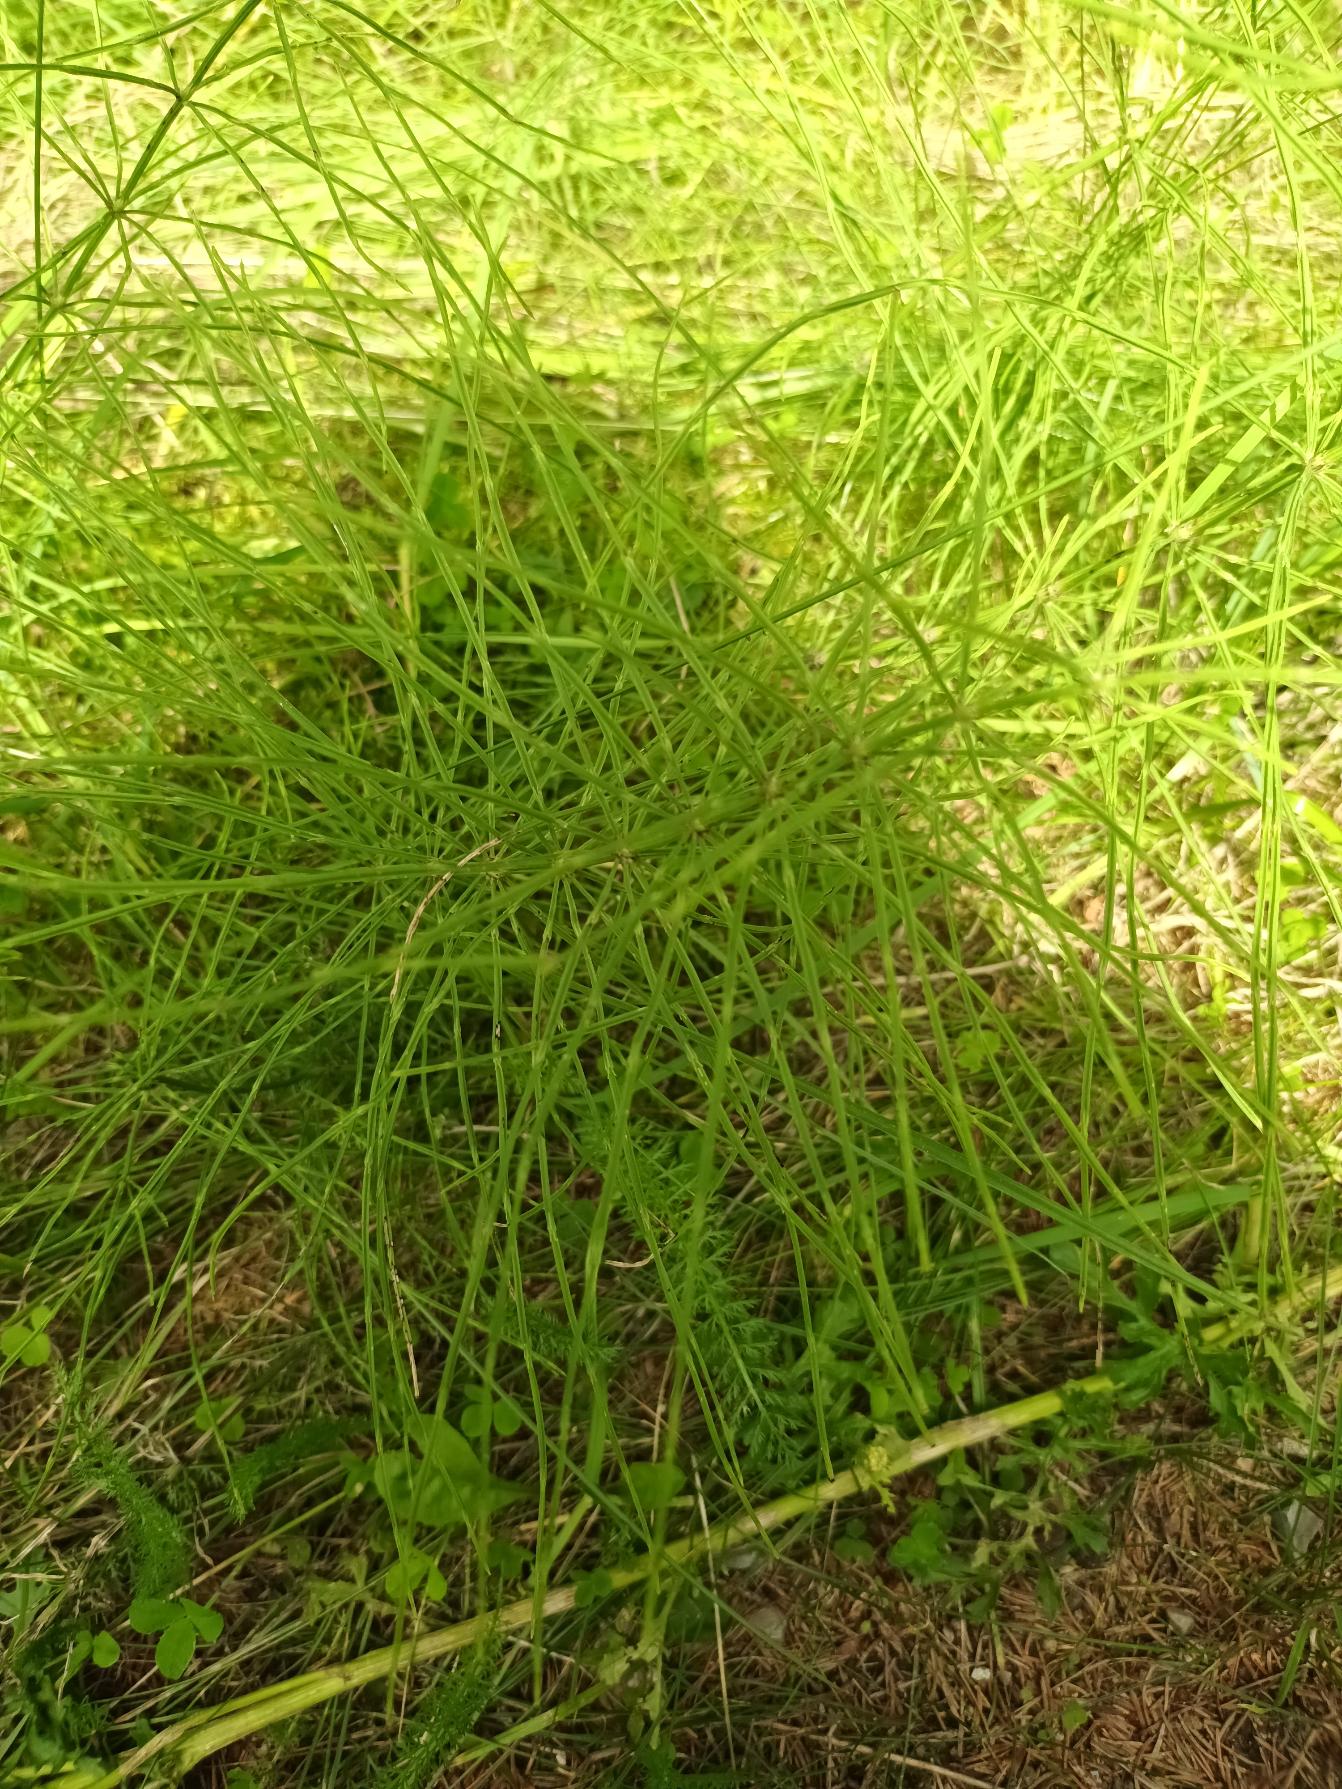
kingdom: Plantae
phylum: Tracheophyta
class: Polypodiopsida
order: Equisetales
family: Equisetaceae
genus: Equisetum
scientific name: Equisetum arvense
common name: Ager-padderok
